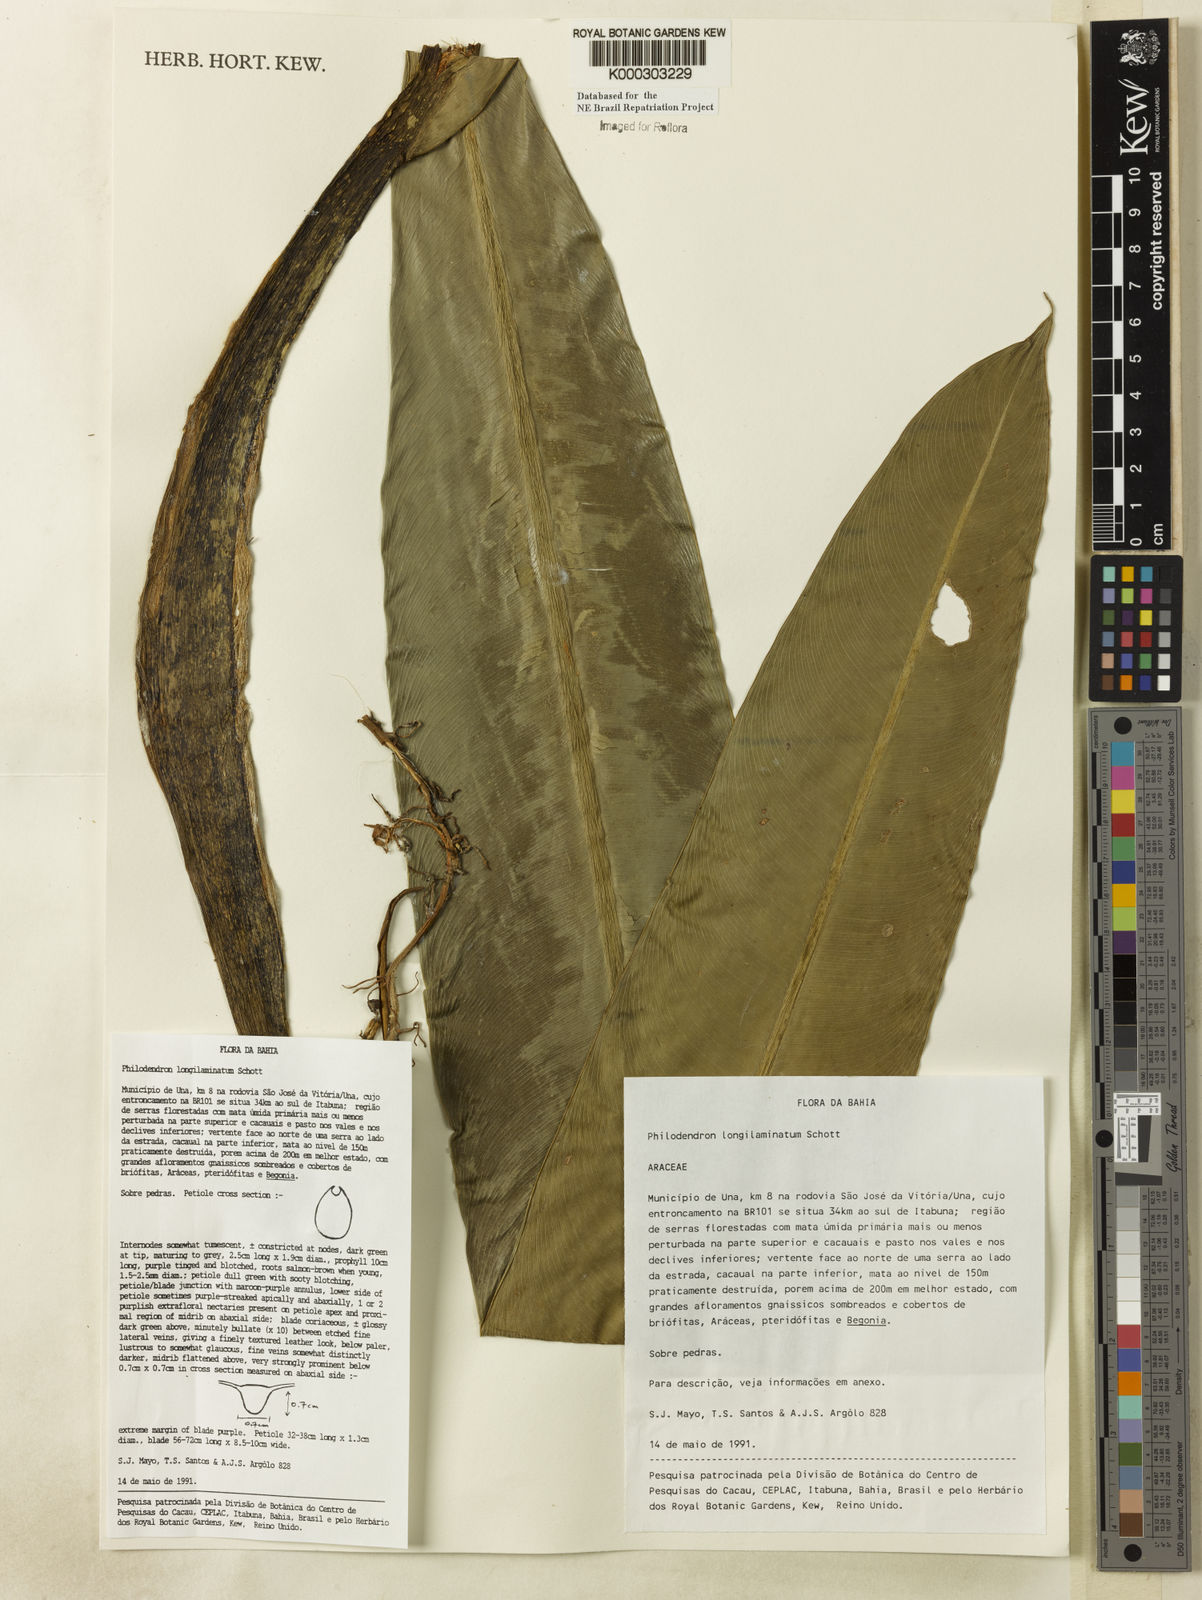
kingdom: Plantae
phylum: Tracheophyta
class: Liliopsida
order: Alismatales
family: Araceae
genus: Philodendron
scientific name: Philodendron longilaminatum
